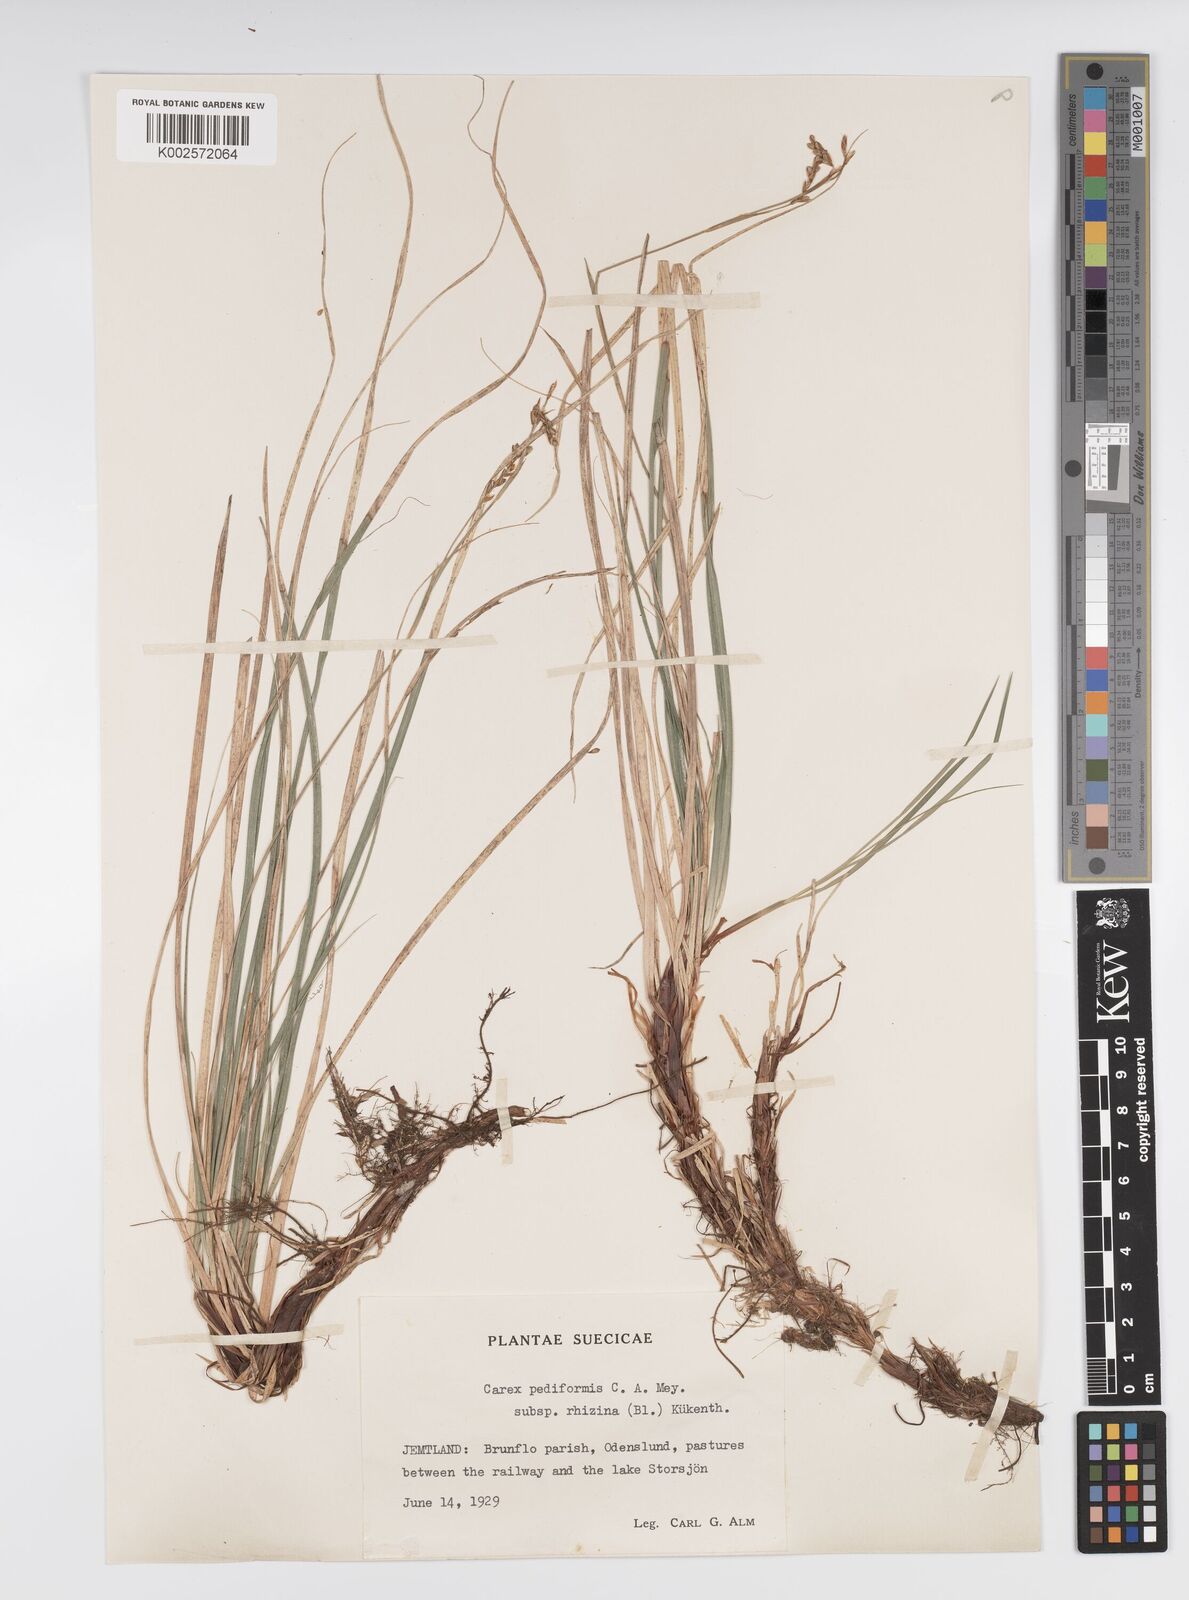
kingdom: Plantae
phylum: Tracheophyta
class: Liliopsida
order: Poales
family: Cyperaceae
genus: Carex
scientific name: Carex pediformis
